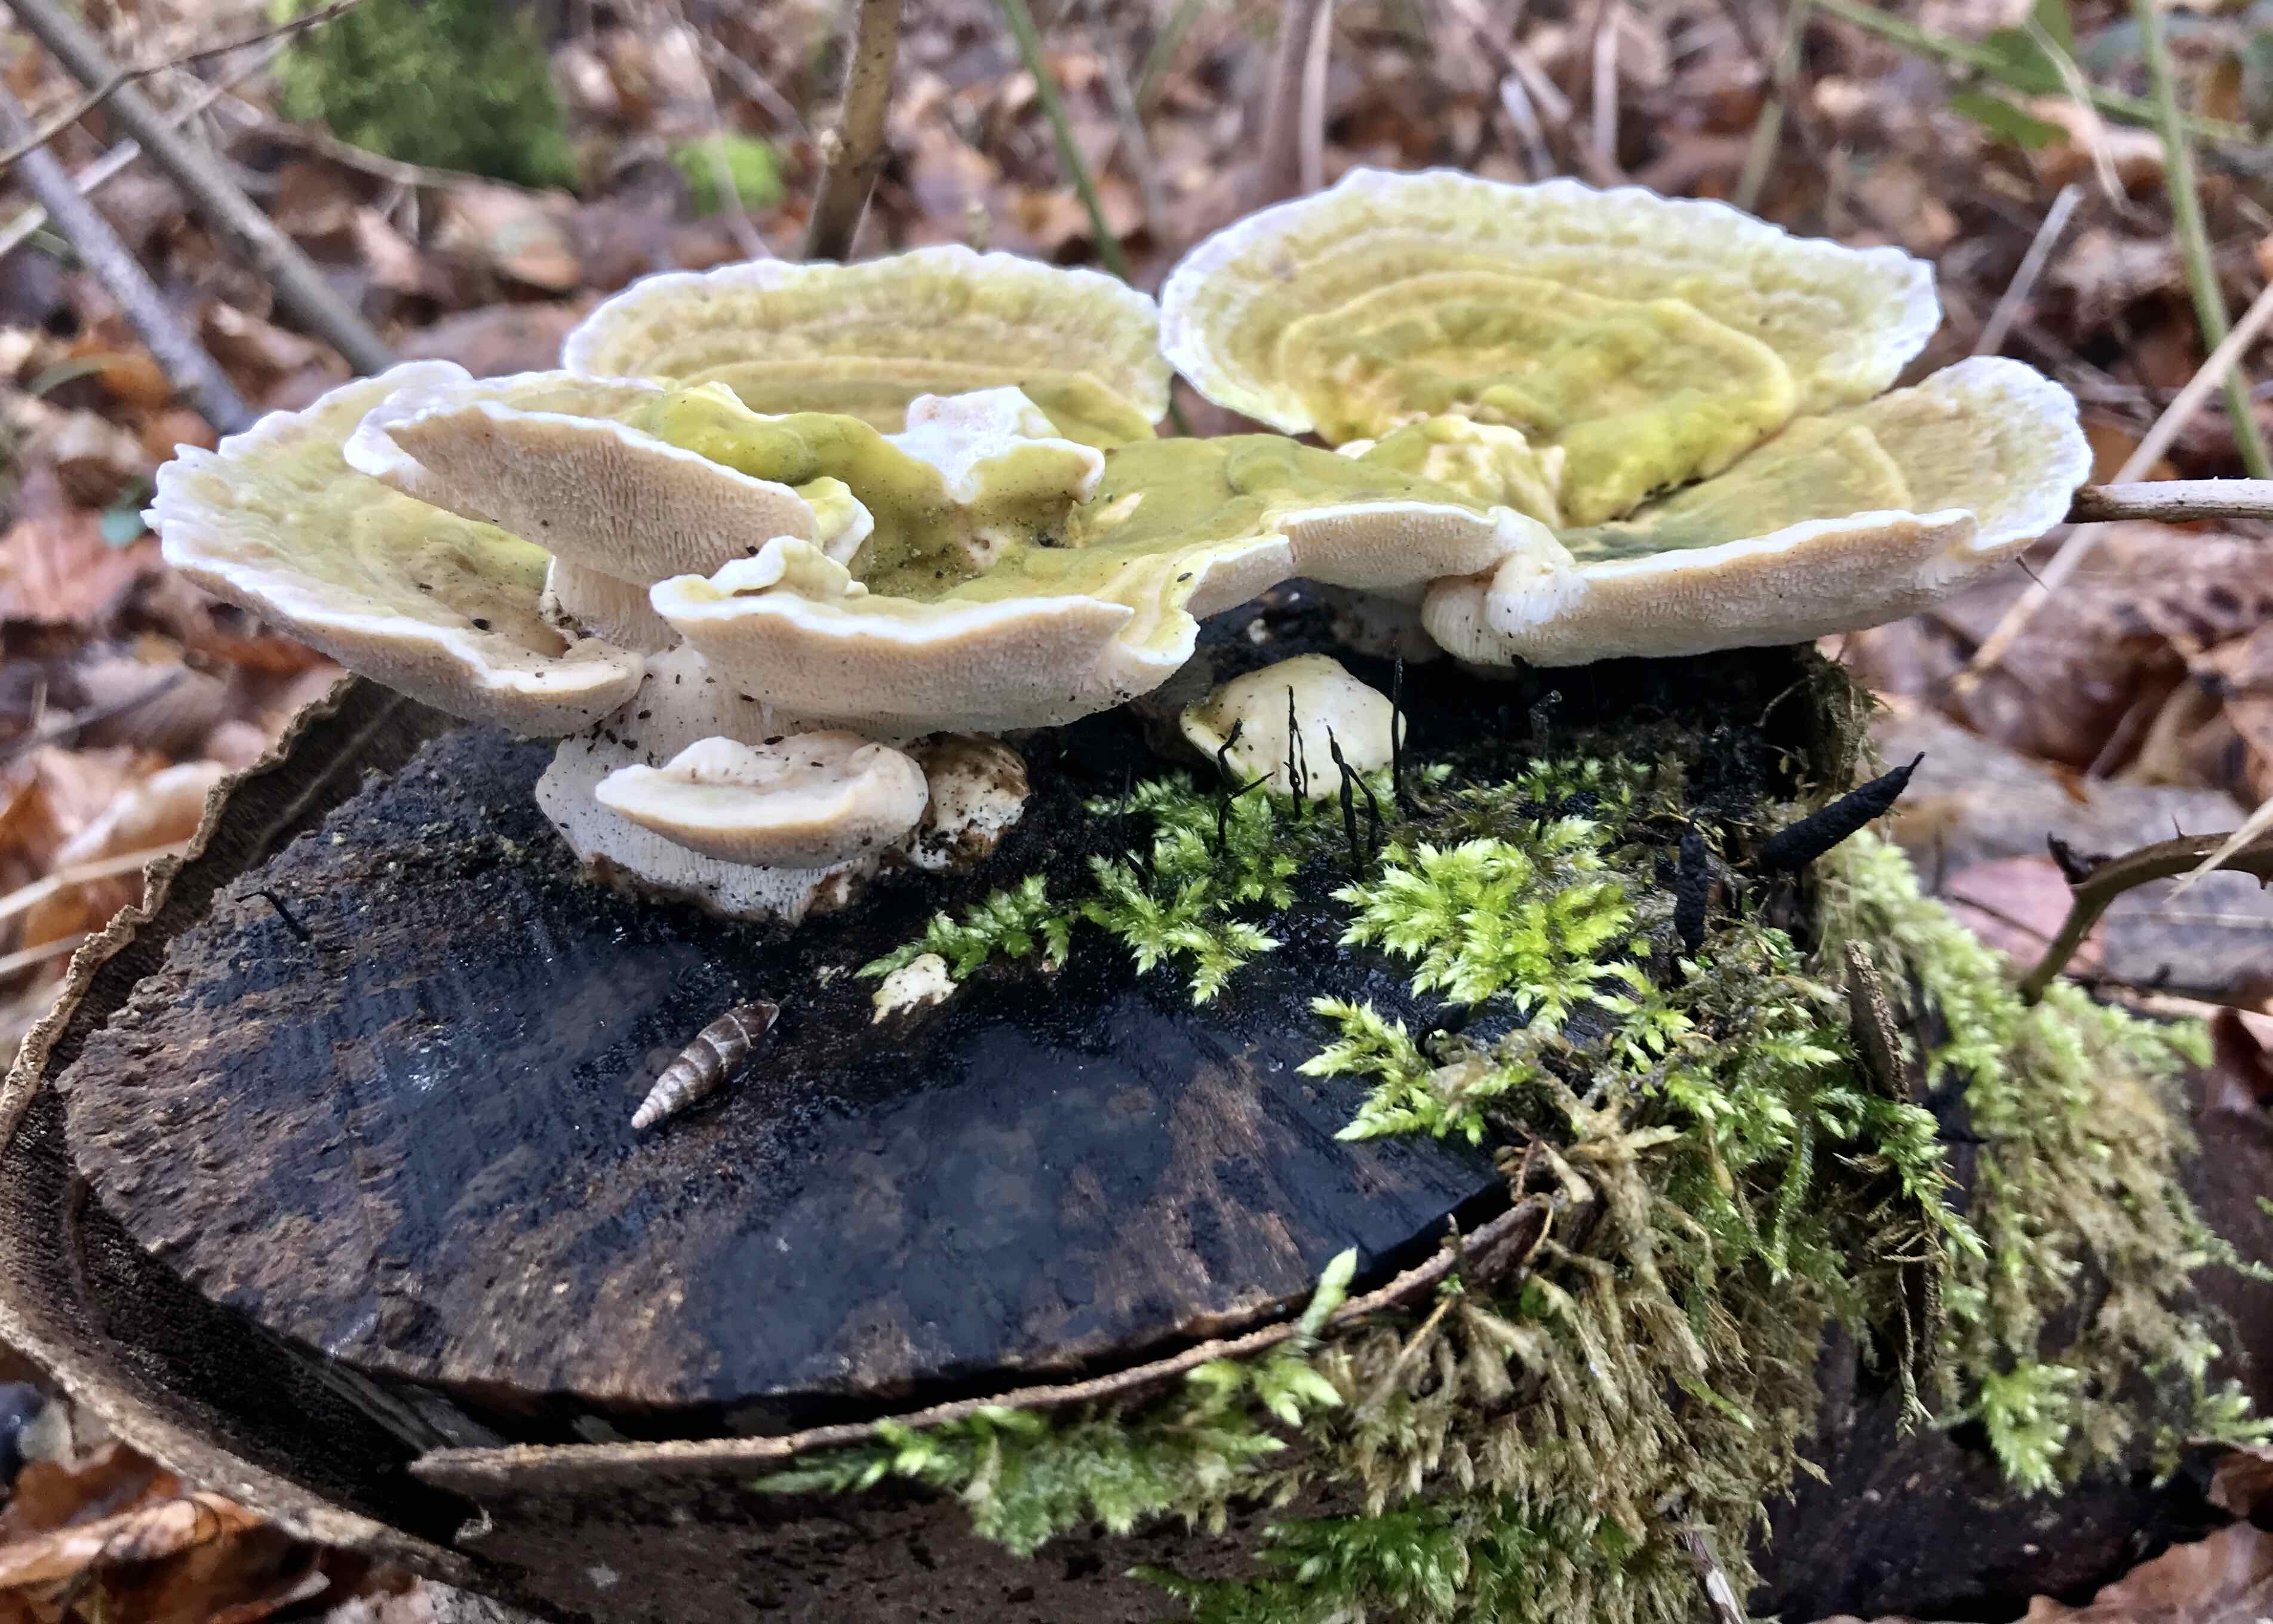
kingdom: Fungi
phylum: Basidiomycota
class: Agaricomycetes
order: Polyporales
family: Polyporaceae
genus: Trametes
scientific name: Trametes gibbosa
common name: puklet læderporesvamp
